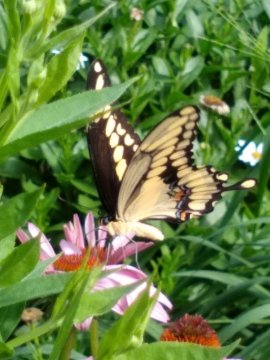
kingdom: Animalia
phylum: Arthropoda
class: Insecta
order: Lepidoptera
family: Papilionidae
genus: Papilio
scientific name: Papilio cresphontes
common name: Eastern Giant Swallowtail
